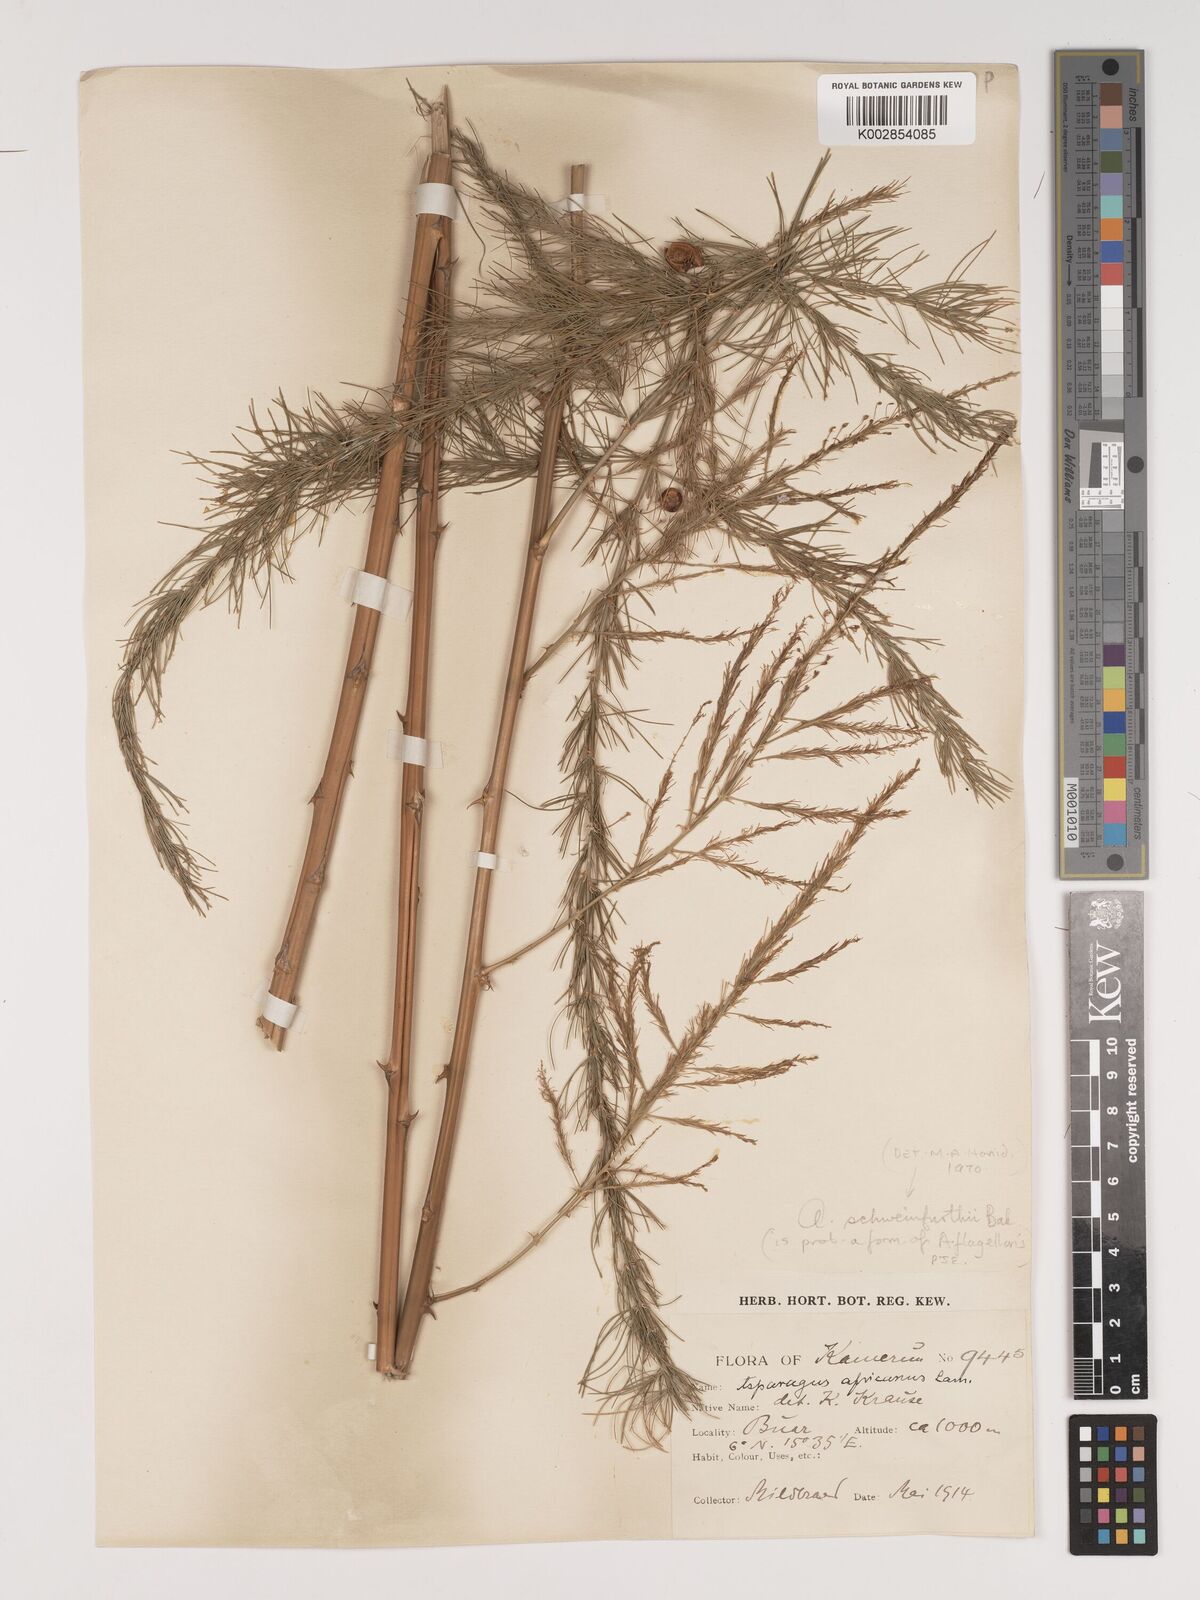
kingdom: Plantae
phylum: Tracheophyta
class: Liliopsida
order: Asparagales
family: Asparagaceae
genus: Asparagus
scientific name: Asparagus flagellaris
